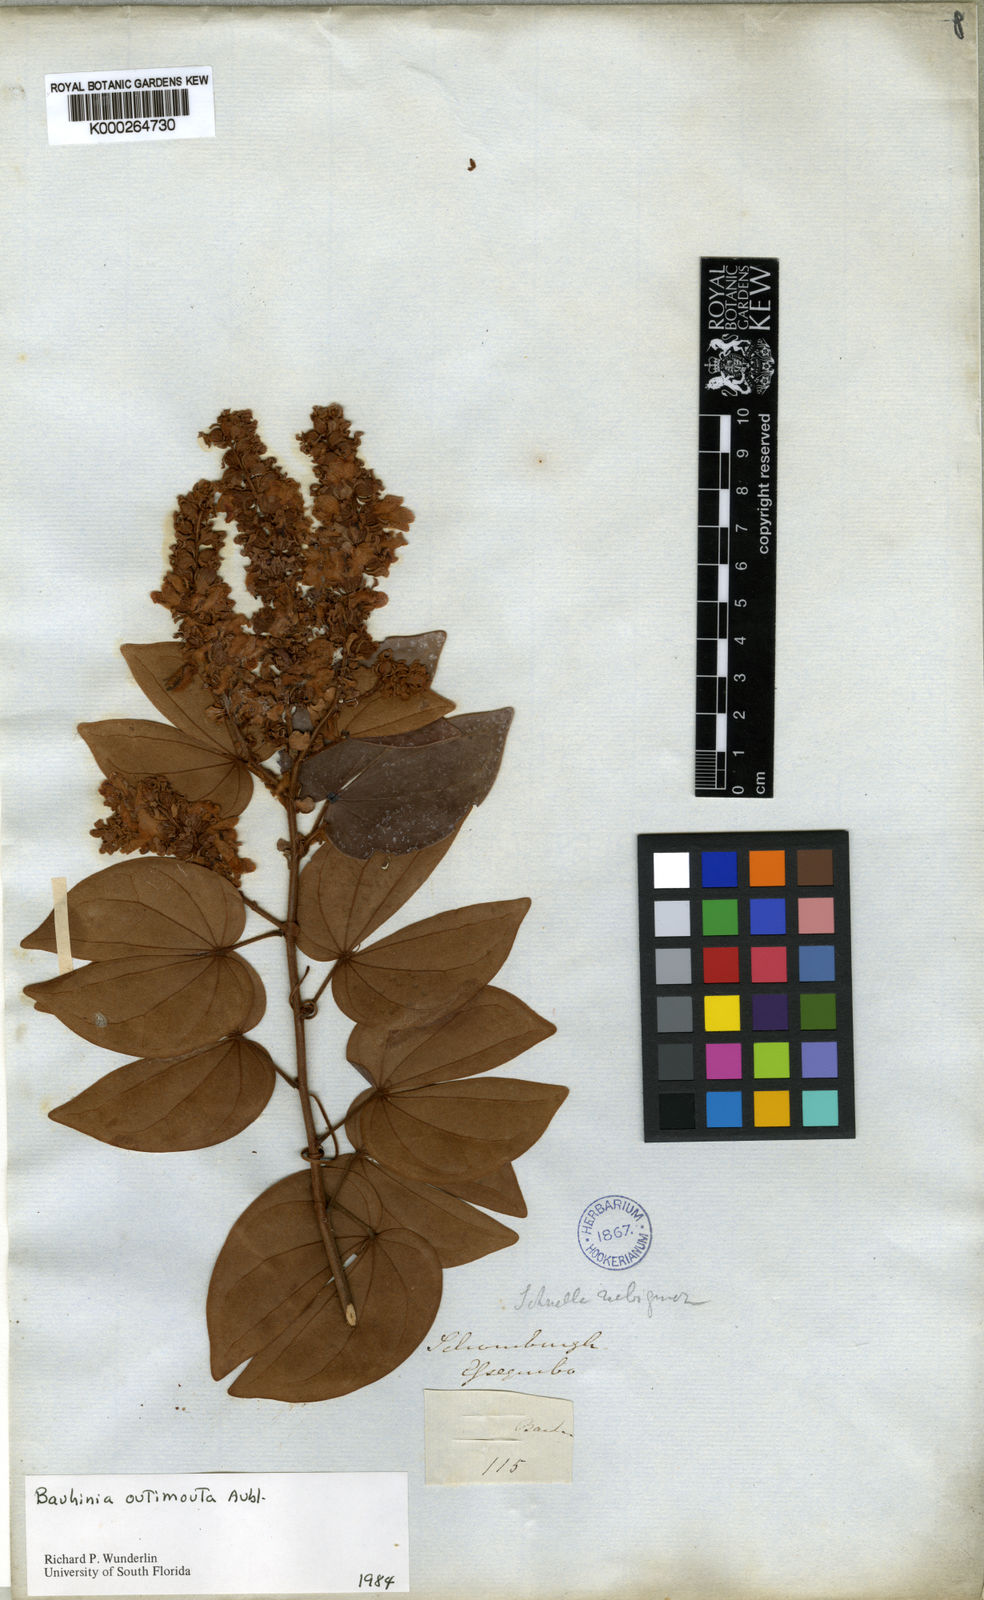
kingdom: Plantae
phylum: Tracheophyta
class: Magnoliopsida
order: Fabales
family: Fabaceae
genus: Schnella
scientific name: Schnella outimouta
